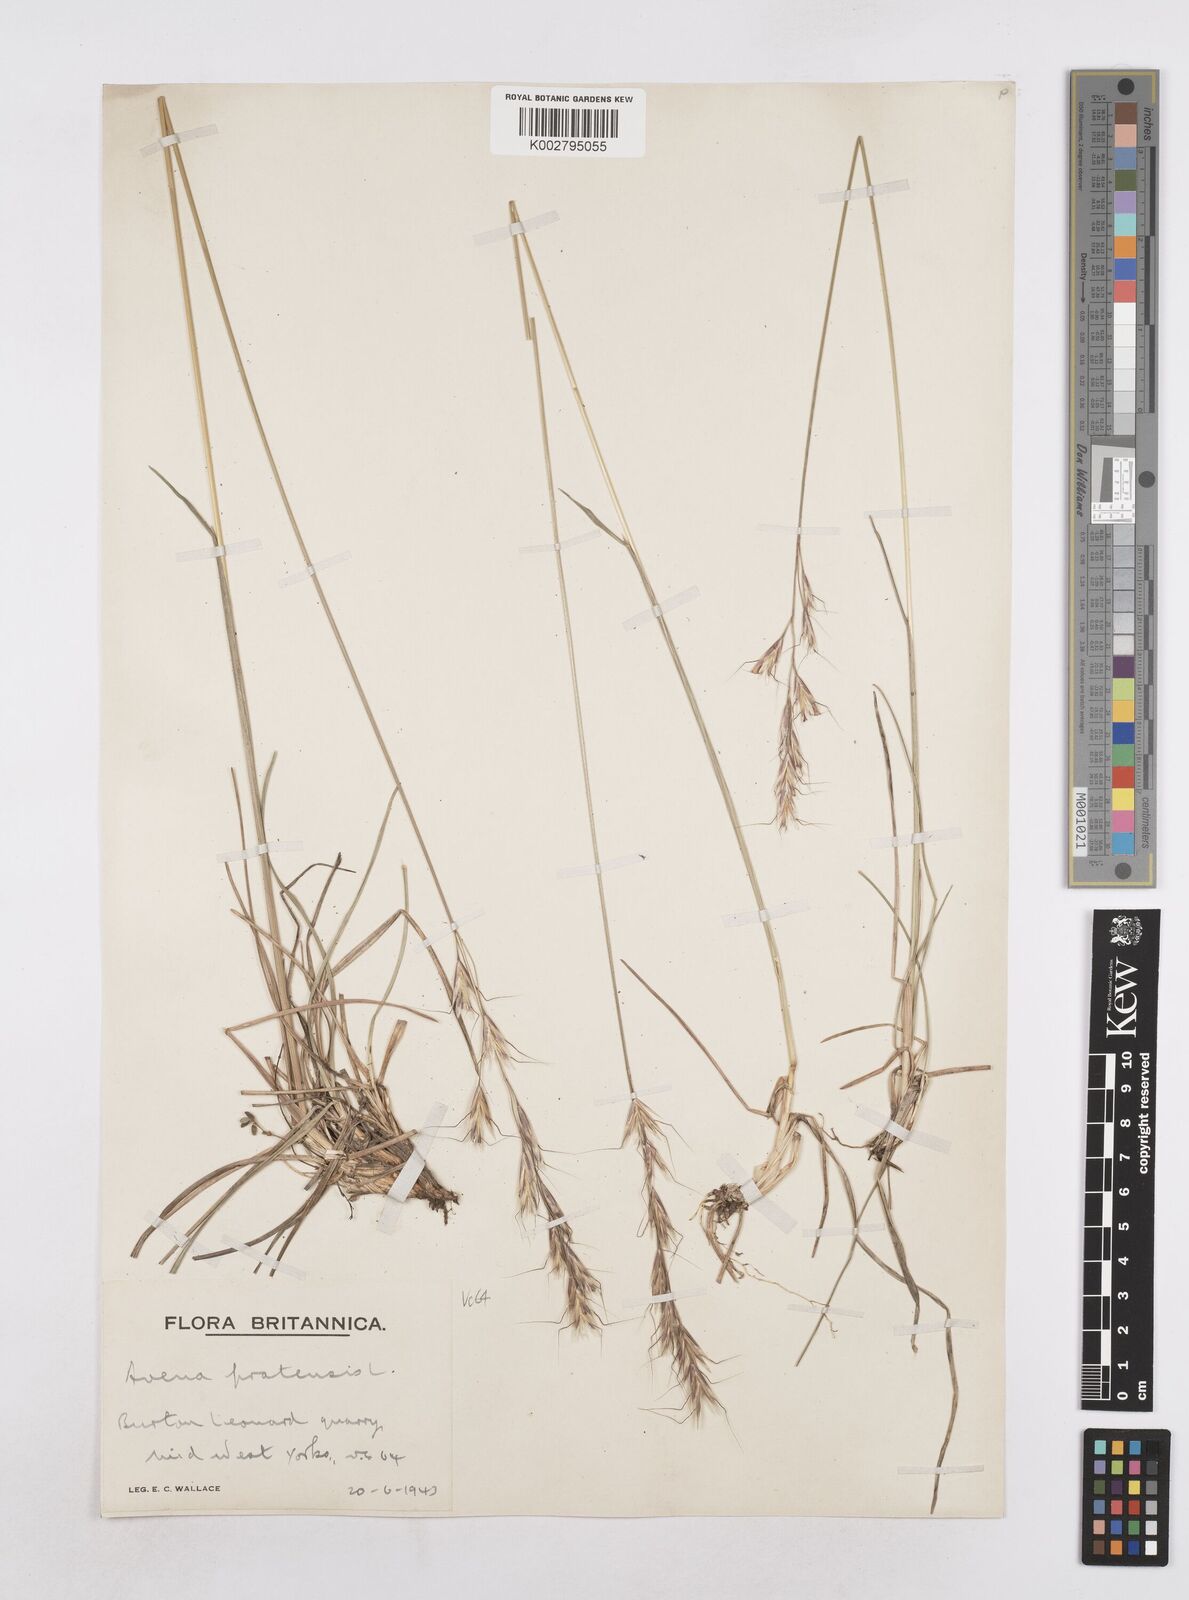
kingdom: Plantae
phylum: Tracheophyta
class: Liliopsida
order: Poales
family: Poaceae
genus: Helictochloa
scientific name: Helictochloa pratensis
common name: Meadow oat grass
